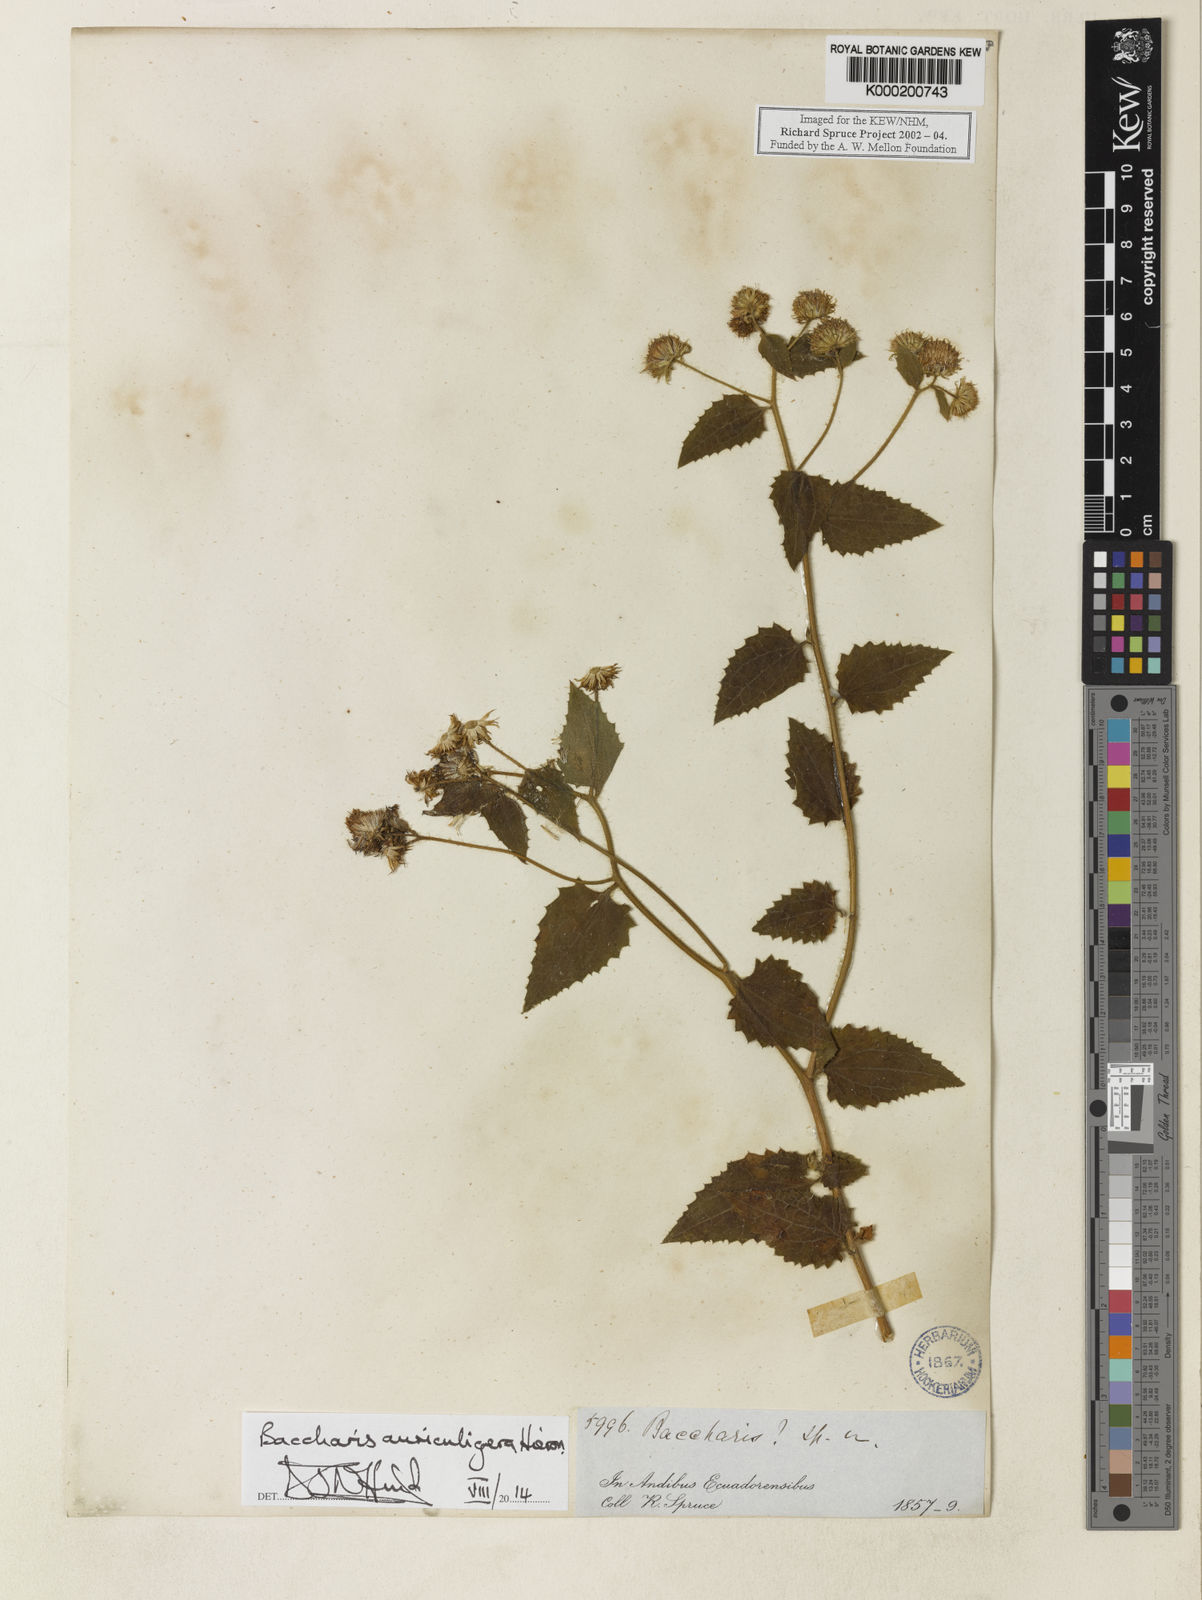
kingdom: Plantae
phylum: Tracheophyta
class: Magnoliopsida
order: Asterales
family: Asteraceae
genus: Baccharis
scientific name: Baccharis auriculigera
